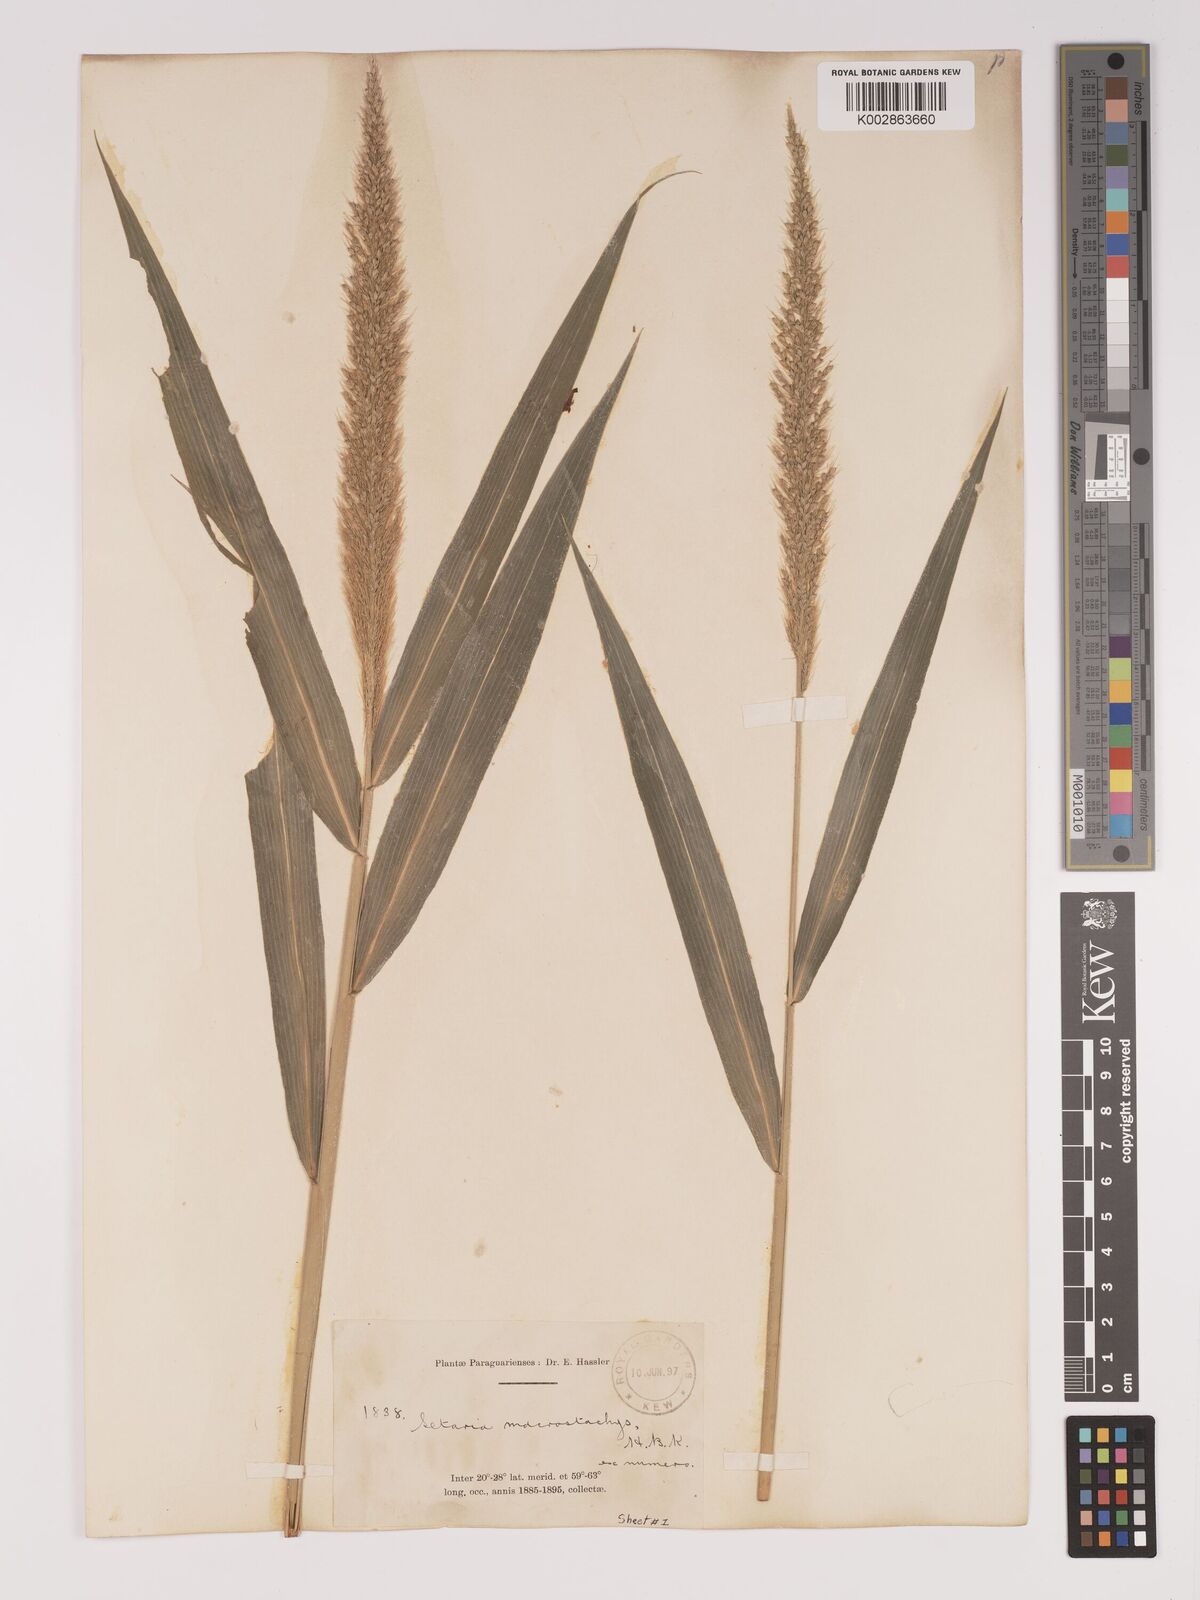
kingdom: Plantae
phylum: Tracheophyta
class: Liliopsida
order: Poales
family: Poaceae
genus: Setaria
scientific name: Setaria vulpiseta
